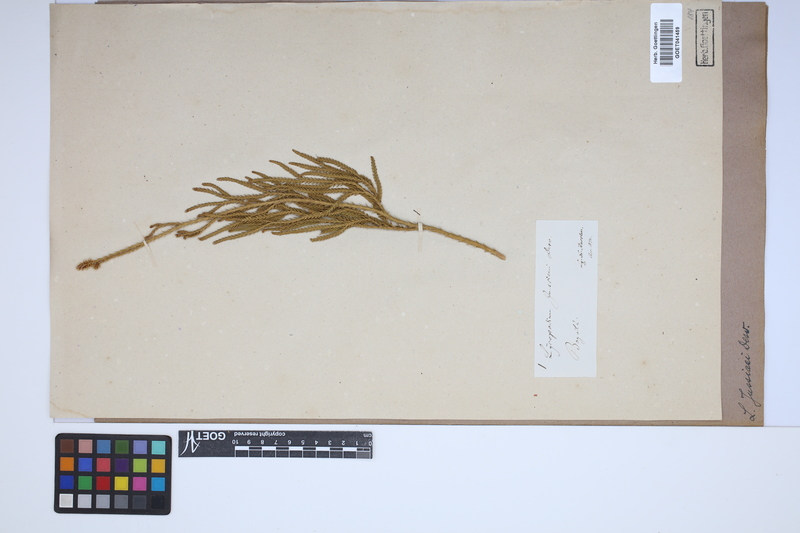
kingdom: Plantae
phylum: Tracheophyta
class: Lycopodiopsida
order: Lycopodiales
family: Lycopodiaceae
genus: Diphasium
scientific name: Diphasium jussiaei
